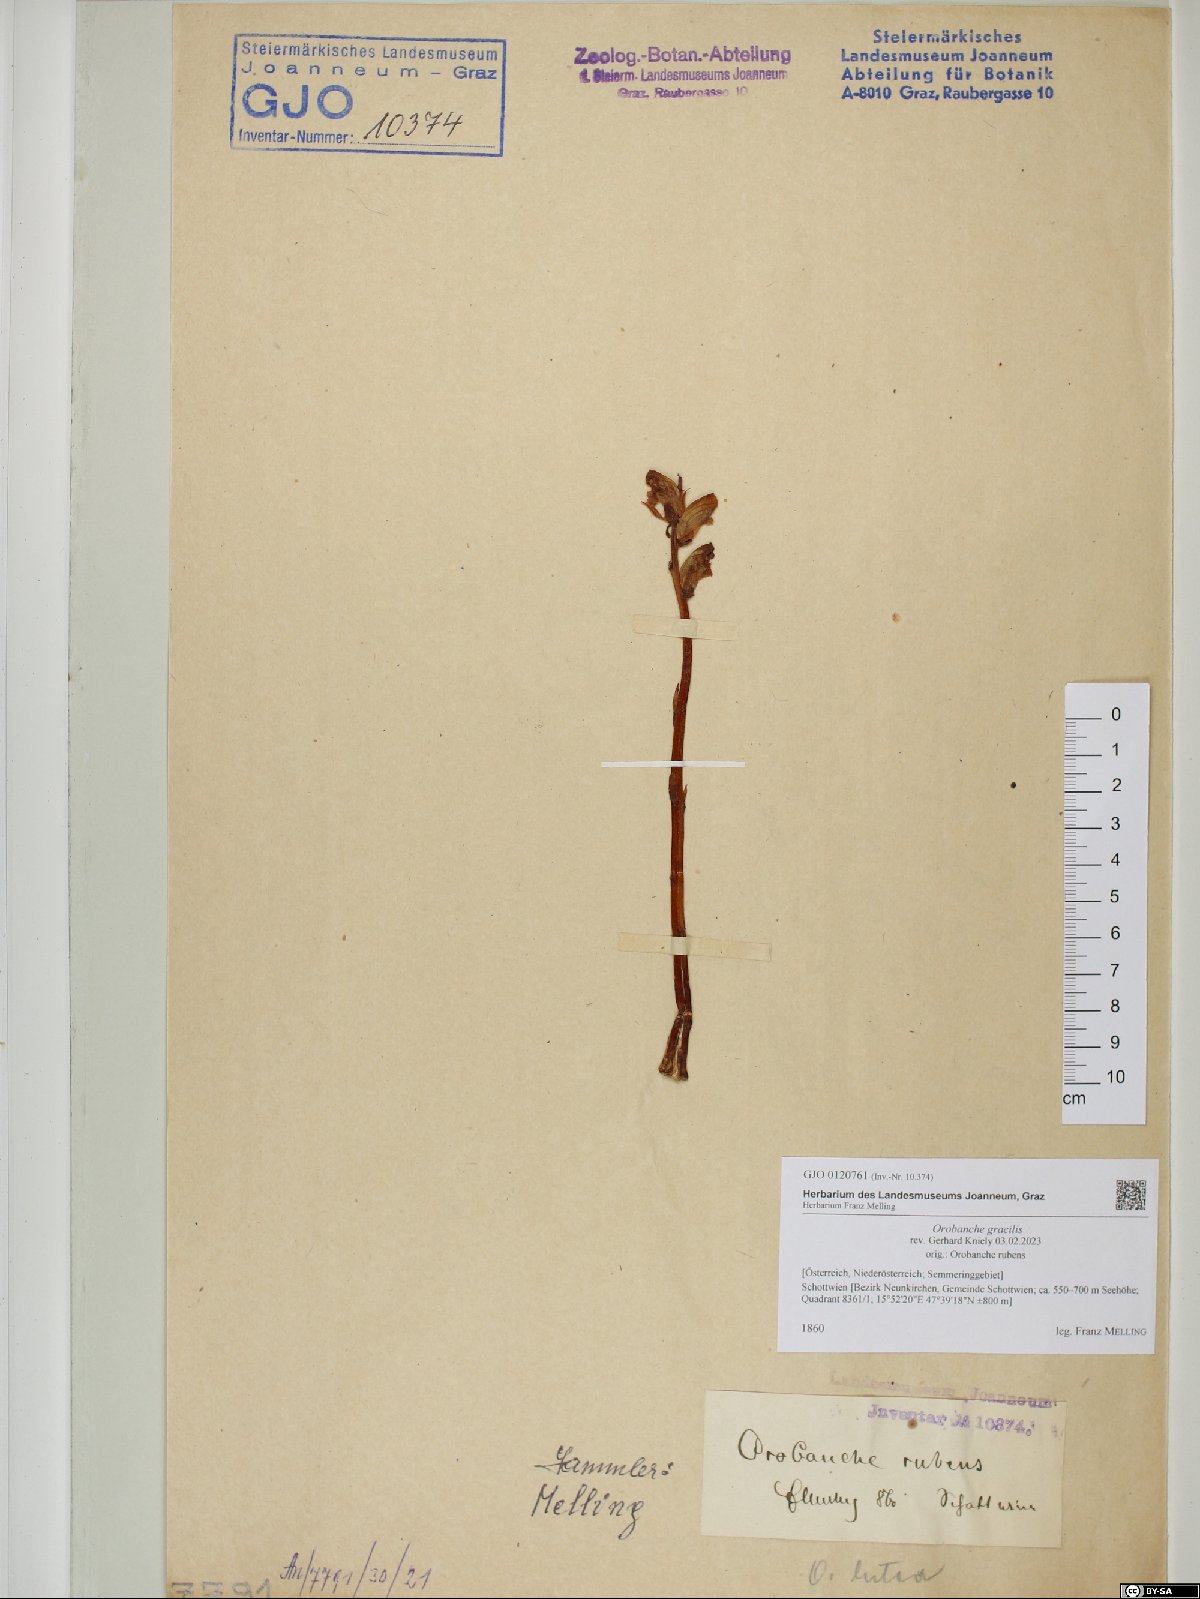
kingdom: Plantae
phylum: Tracheophyta
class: Magnoliopsida
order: Lamiales
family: Orobanchaceae
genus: Orobanche
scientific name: Orobanche gracilis
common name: Slender broomrape
